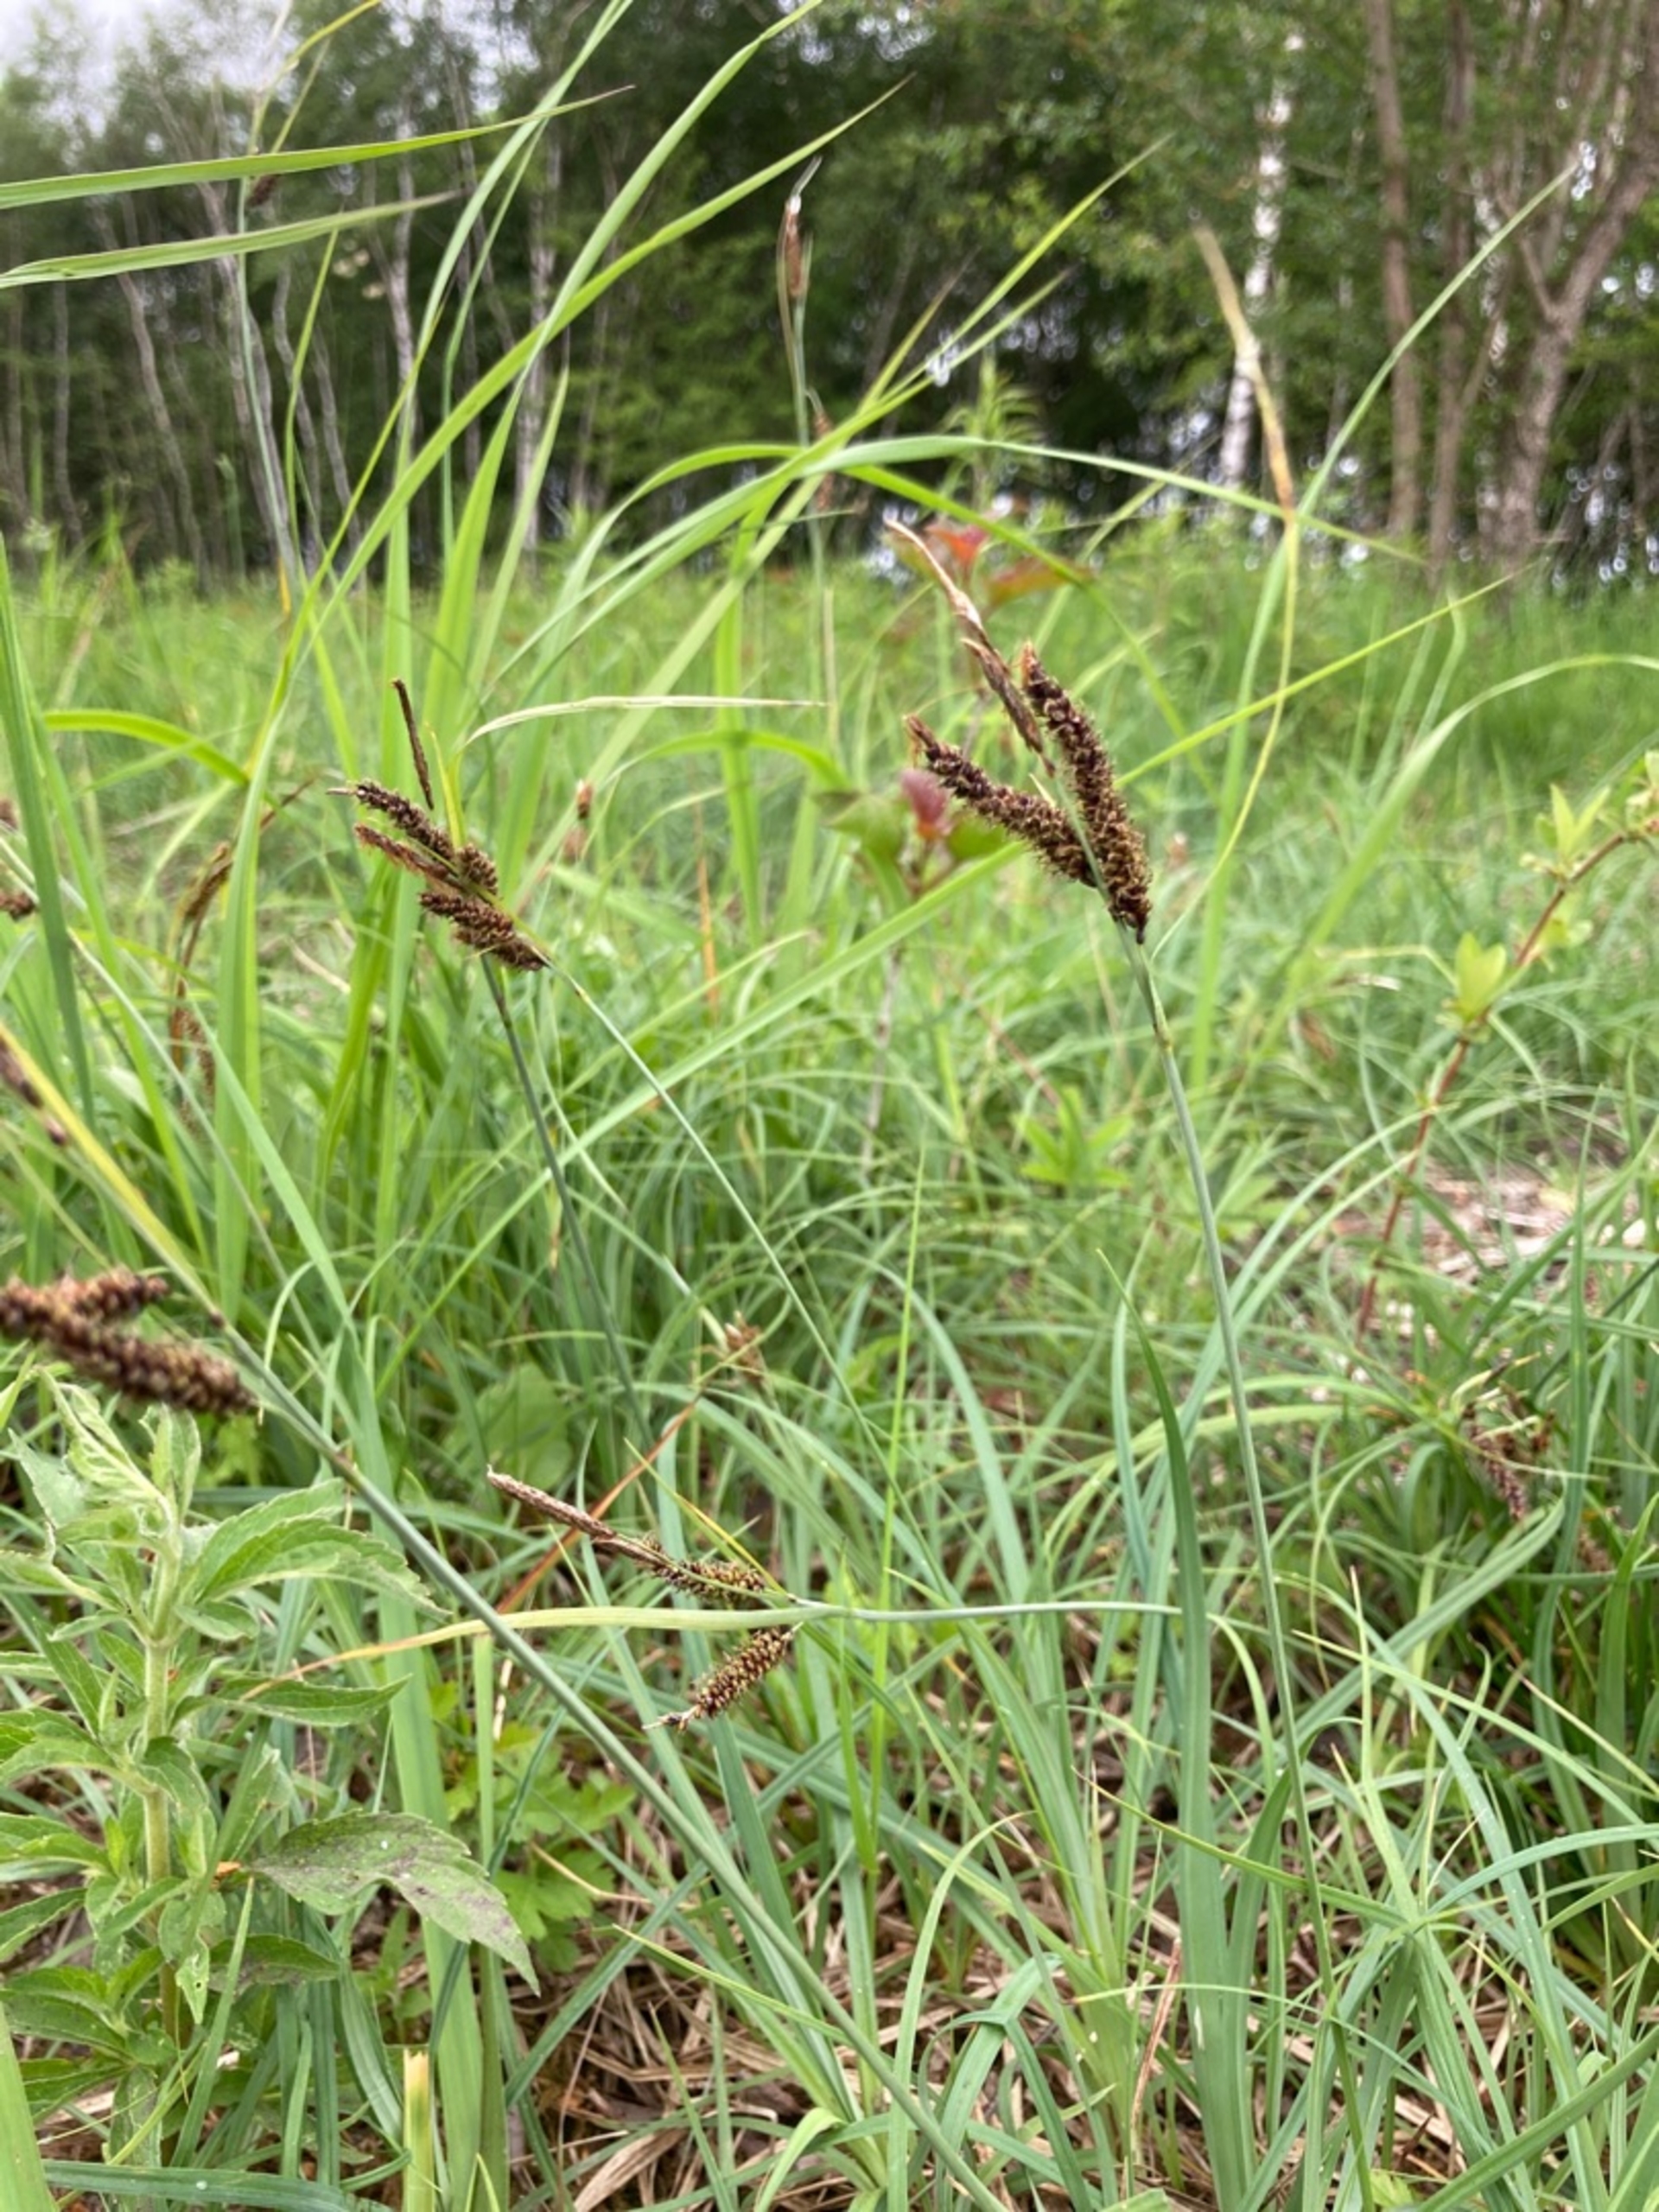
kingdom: Plantae
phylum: Tracheophyta
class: Liliopsida
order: Poales
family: Cyperaceae
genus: Carex
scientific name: Carex flacca
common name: Blågrøn star
